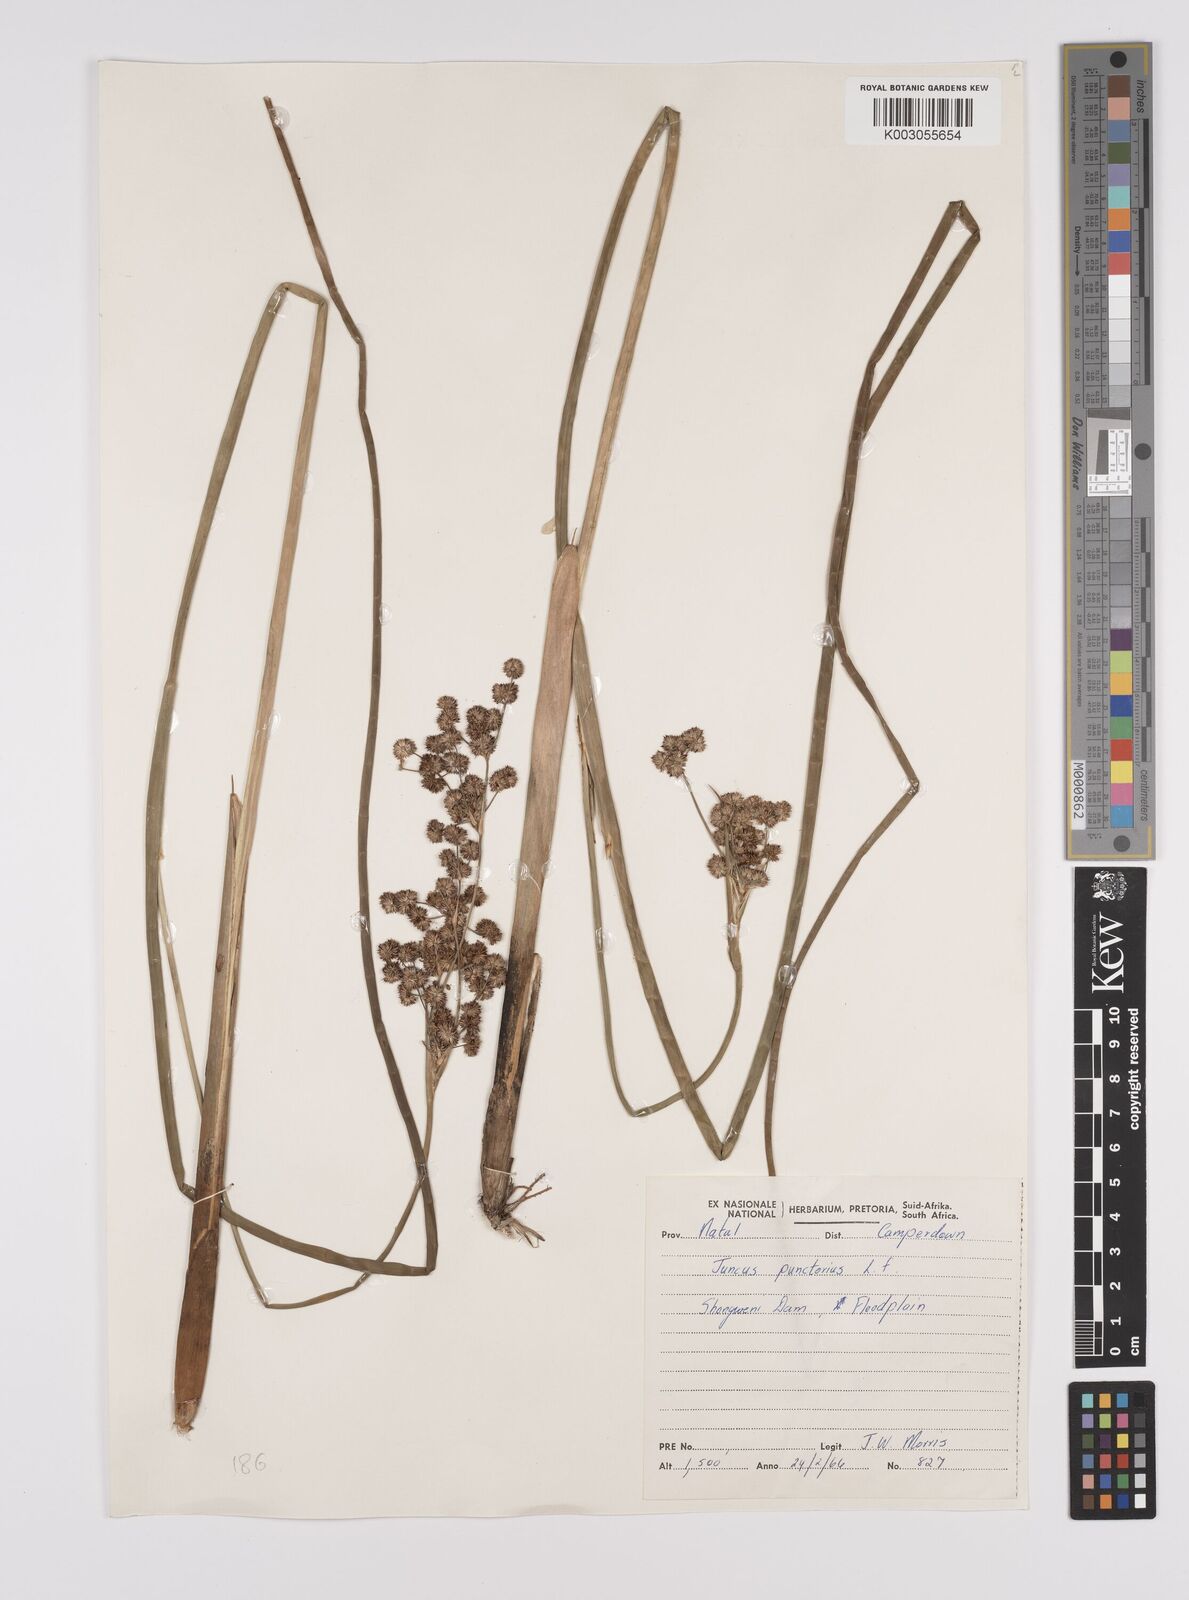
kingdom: Plantae
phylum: Tracheophyta
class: Liliopsida
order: Poales
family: Juncaceae
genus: Juncus
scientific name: Juncus punctorius
